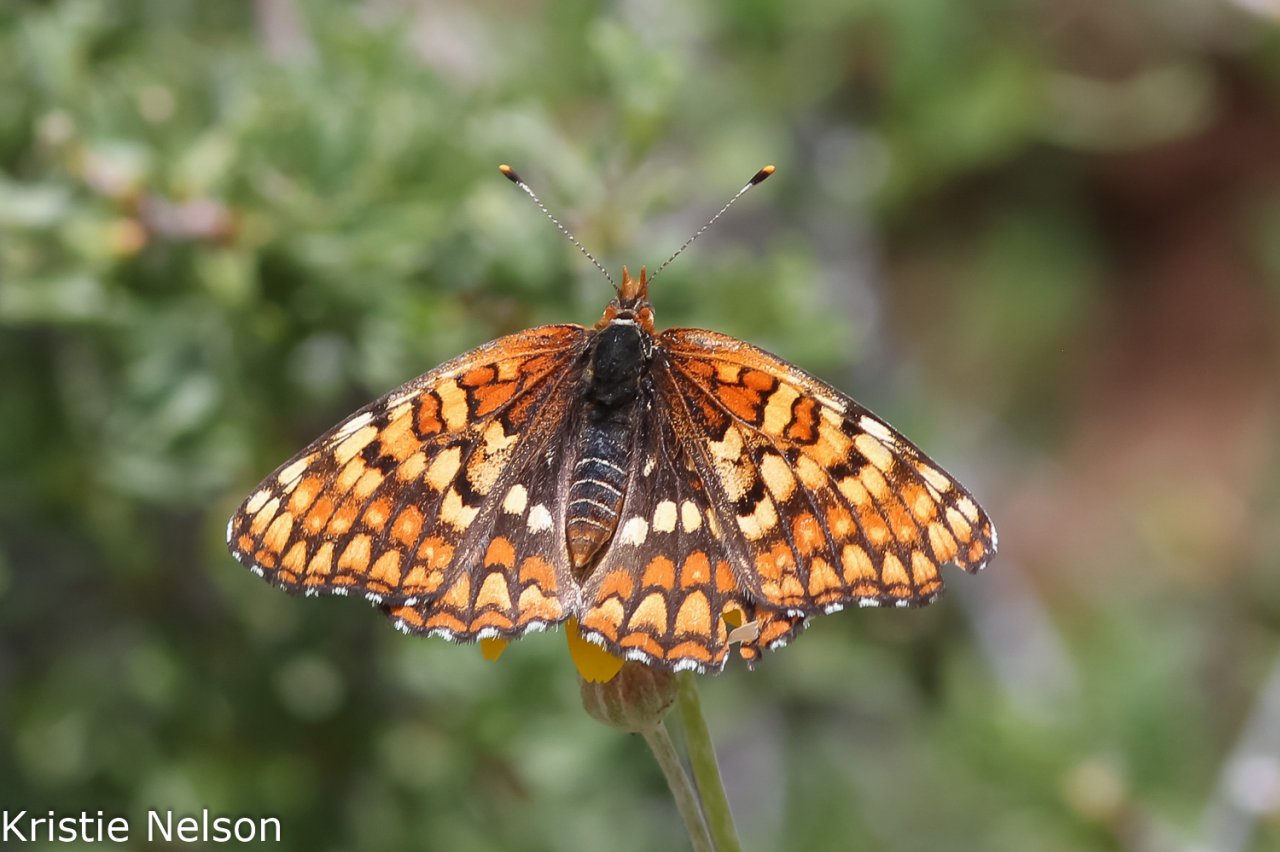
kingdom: Animalia
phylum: Arthropoda
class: Insecta
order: Lepidoptera
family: Nymphalidae
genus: Chlosyne
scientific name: Chlosyne palla
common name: Northern Checkerspot
